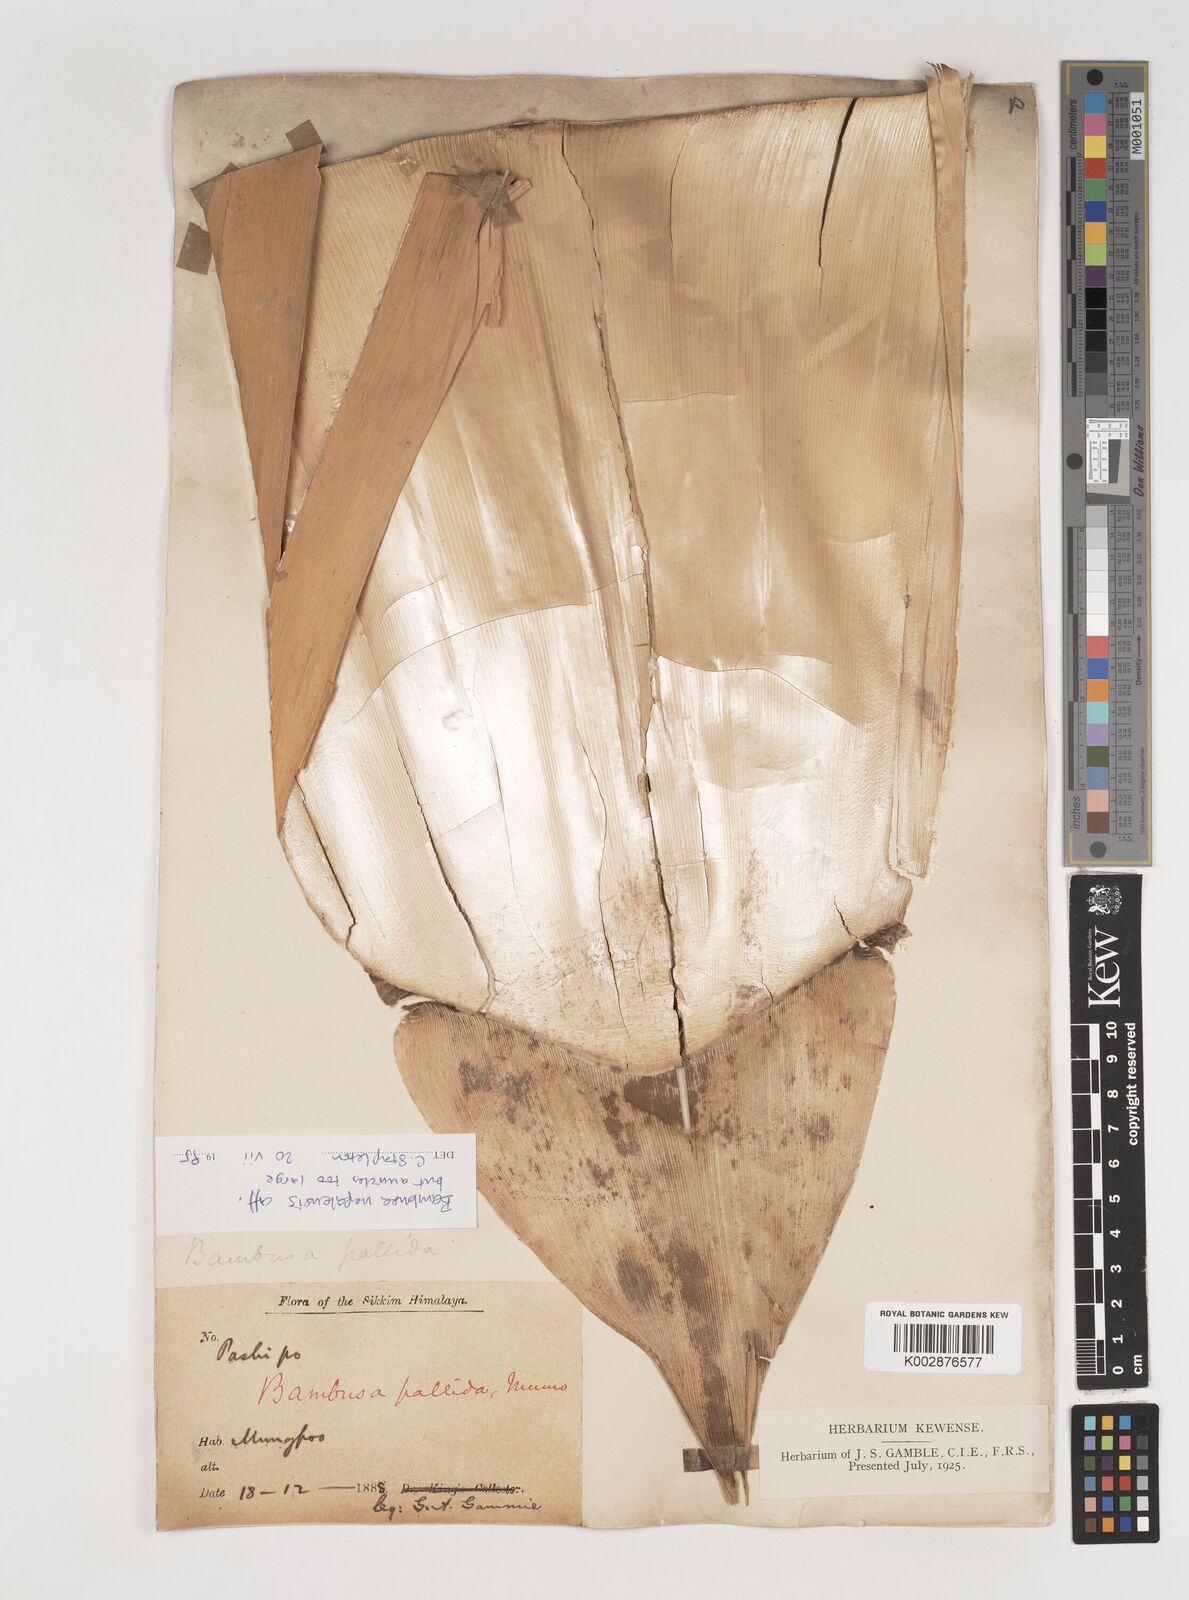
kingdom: Plantae
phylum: Tracheophyta
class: Liliopsida
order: Poales
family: Poaceae
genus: Bambusa
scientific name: Bambusa nepalensis
